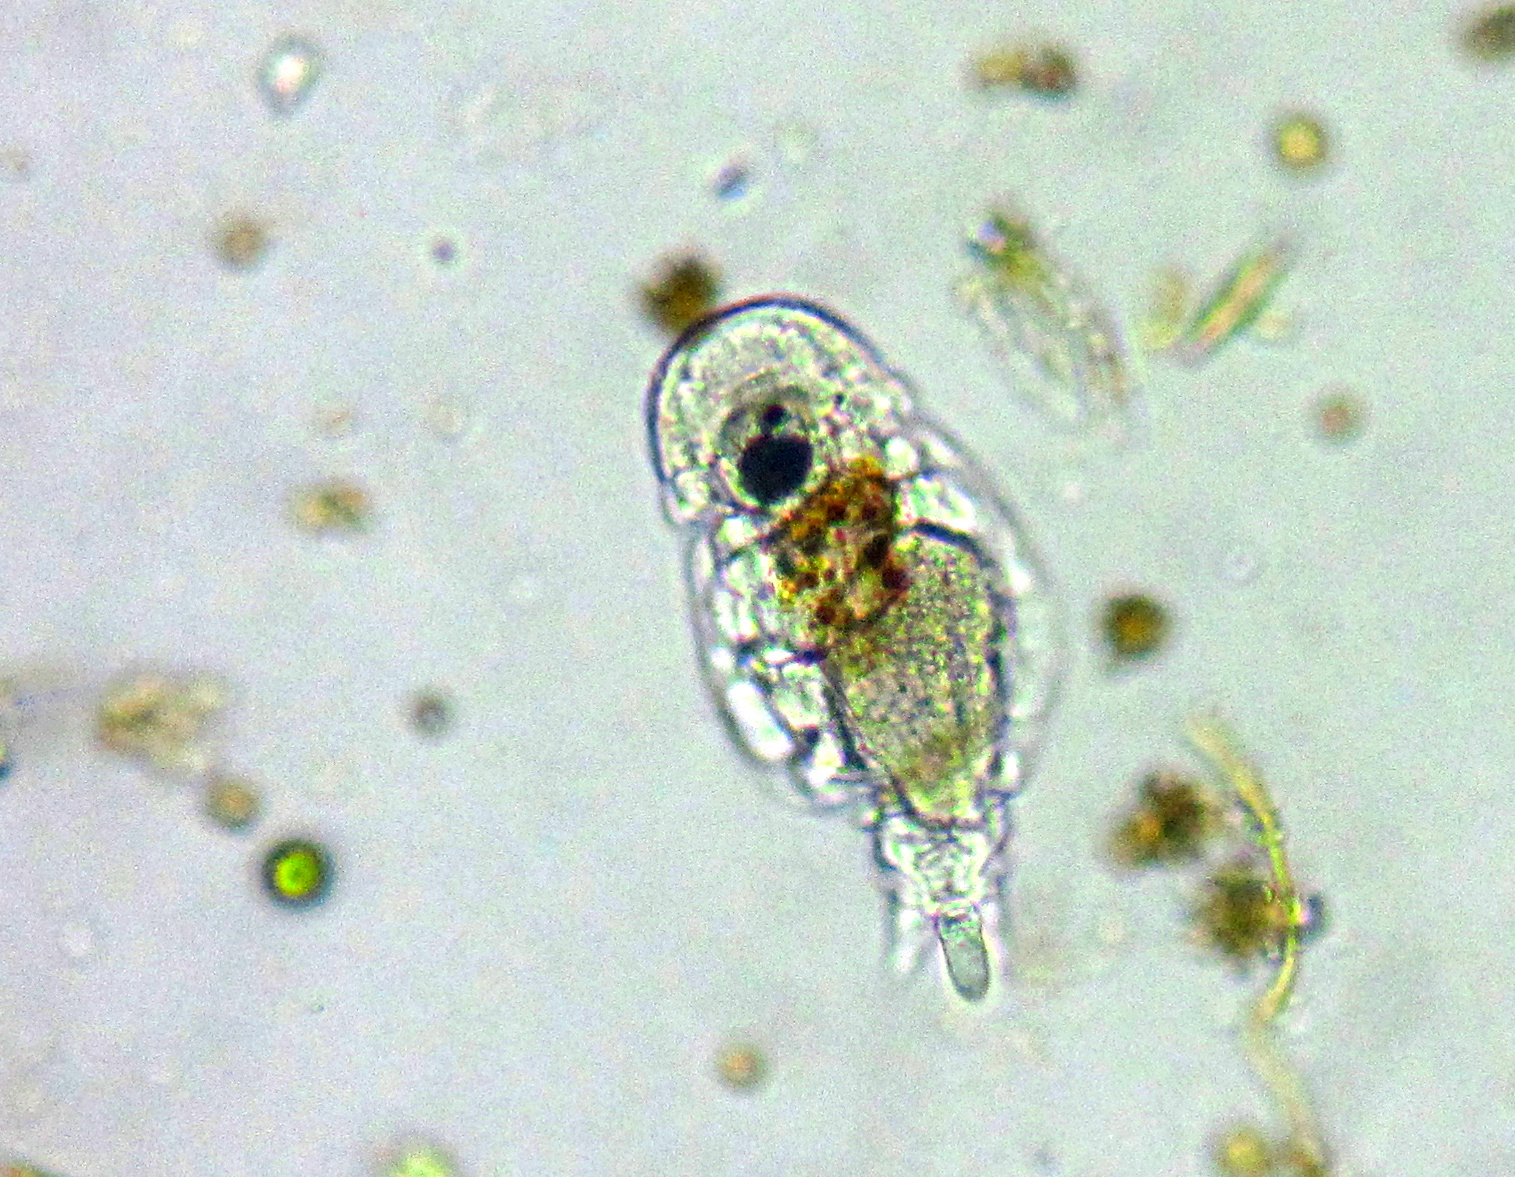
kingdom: Animalia
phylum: Rotifera
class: Eurotatoria
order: Ploima
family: Notommatidae
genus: Notommata
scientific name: Notommata tripus
